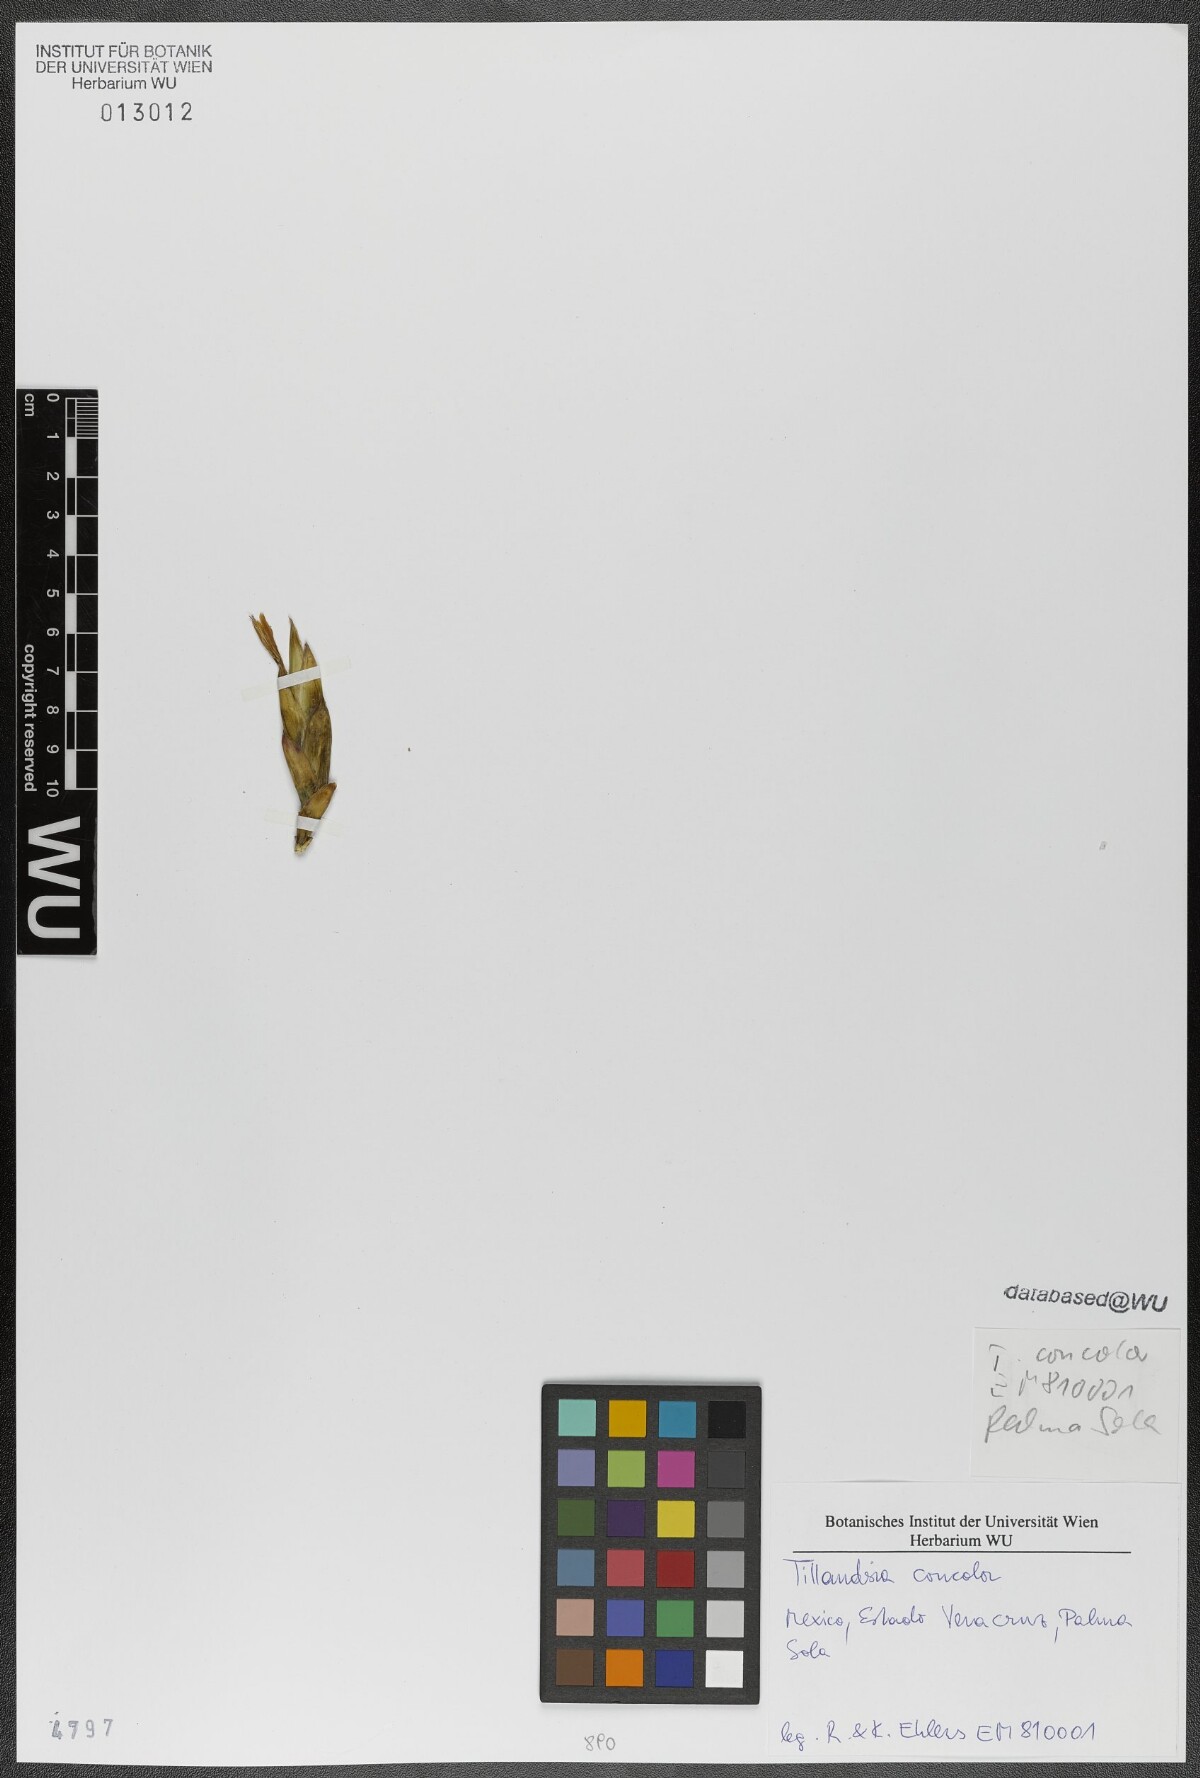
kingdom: Plantae
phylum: Tracheophyta
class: Liliopsida
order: Poales
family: Bromeliaceae
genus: Tillandsia
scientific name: Tillandsia concolor
